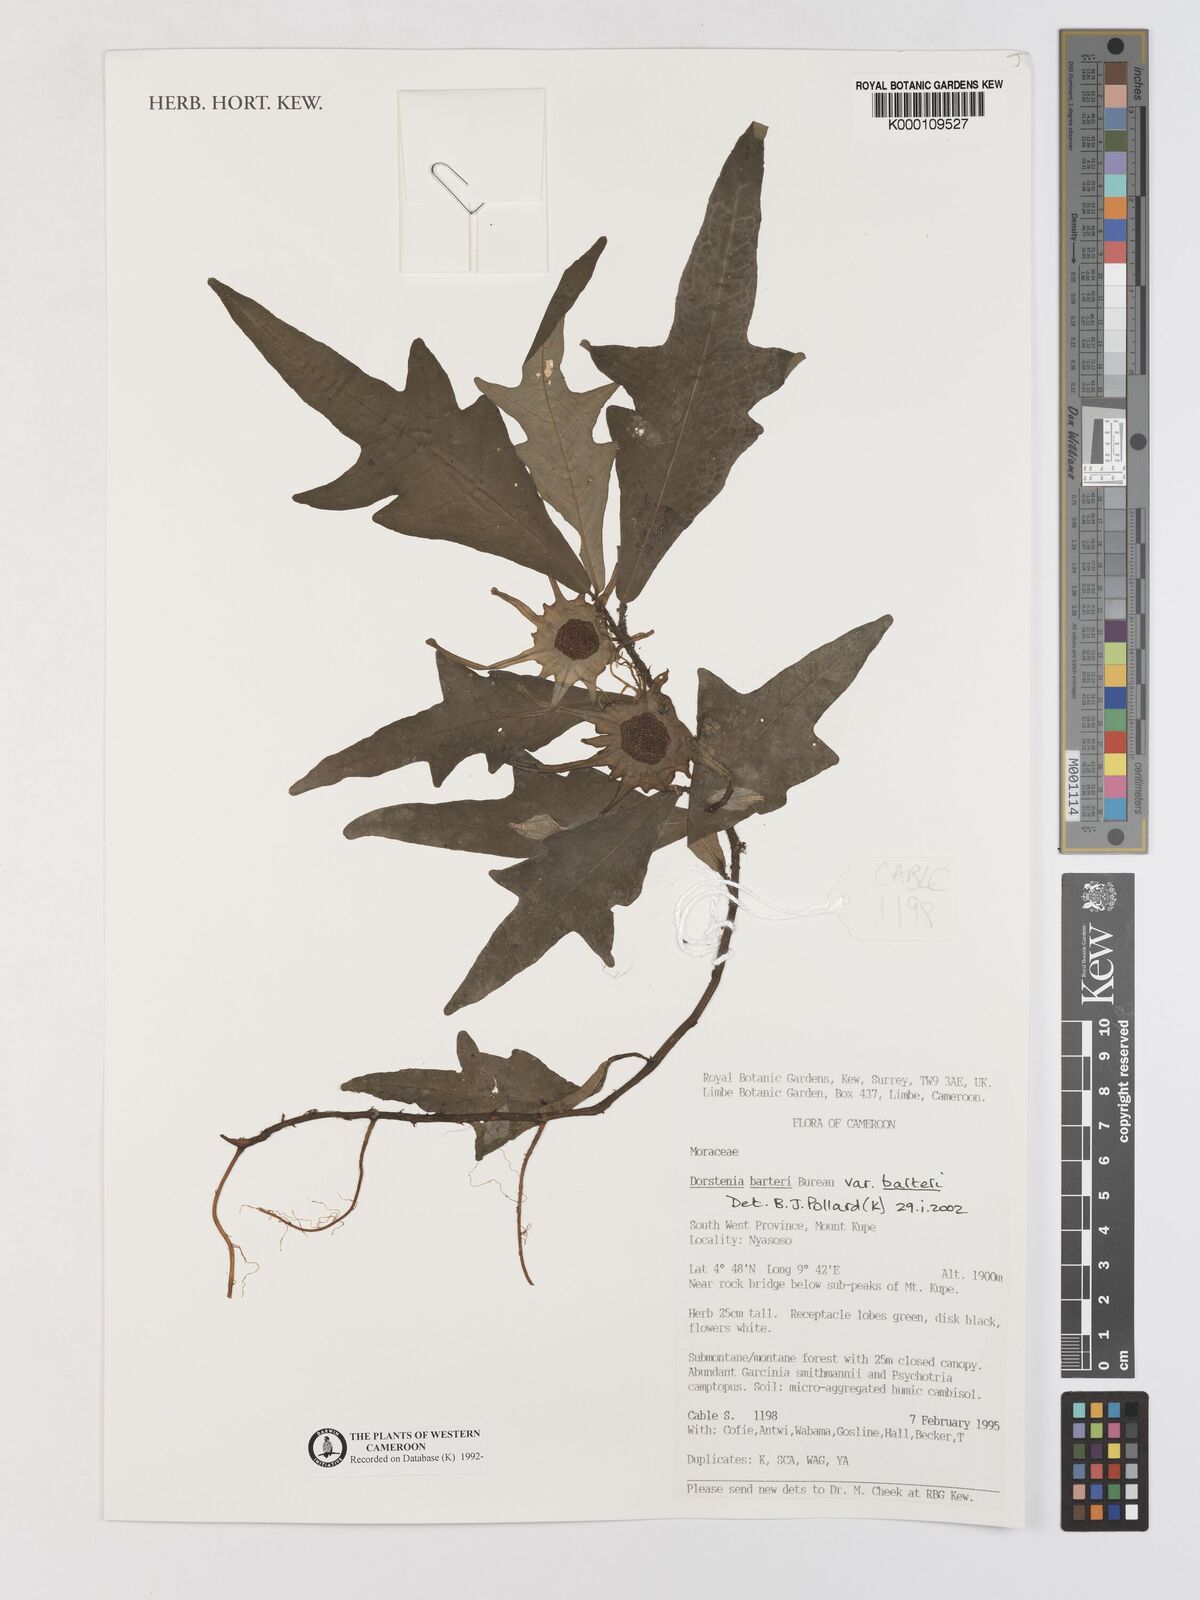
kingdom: Plantae
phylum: Tracheophyta
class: Magnoliopsida
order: Rosales
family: Moraceae
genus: Dorstenia
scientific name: Dorstenia barteri
